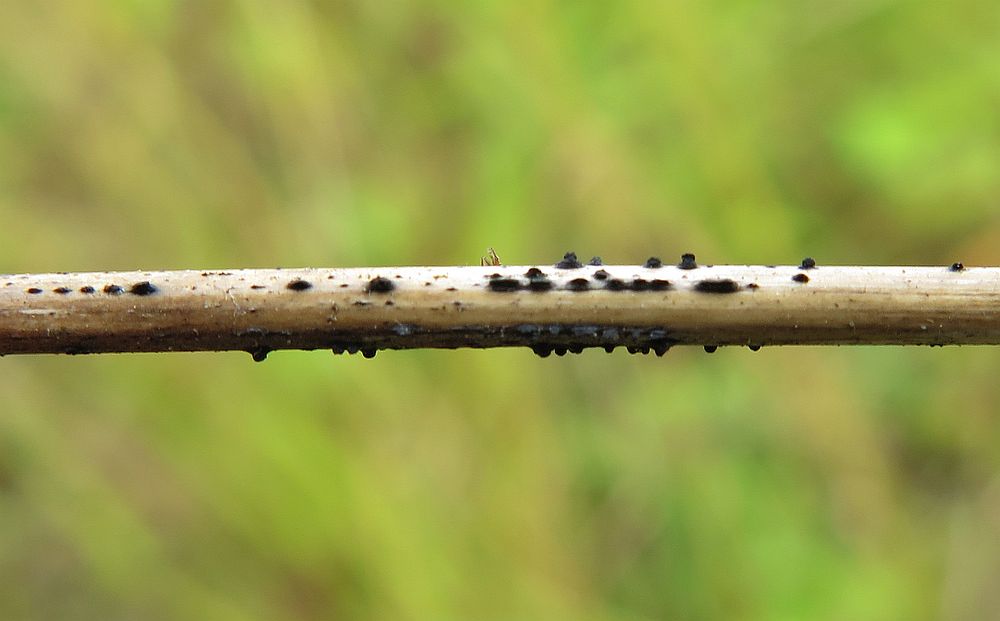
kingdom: Fungi
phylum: Ascomycota
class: Dothideomycetes
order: Pleosporales
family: Lophiostomataceae
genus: Lophiostoma
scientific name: Lophiostoma semiliberum
